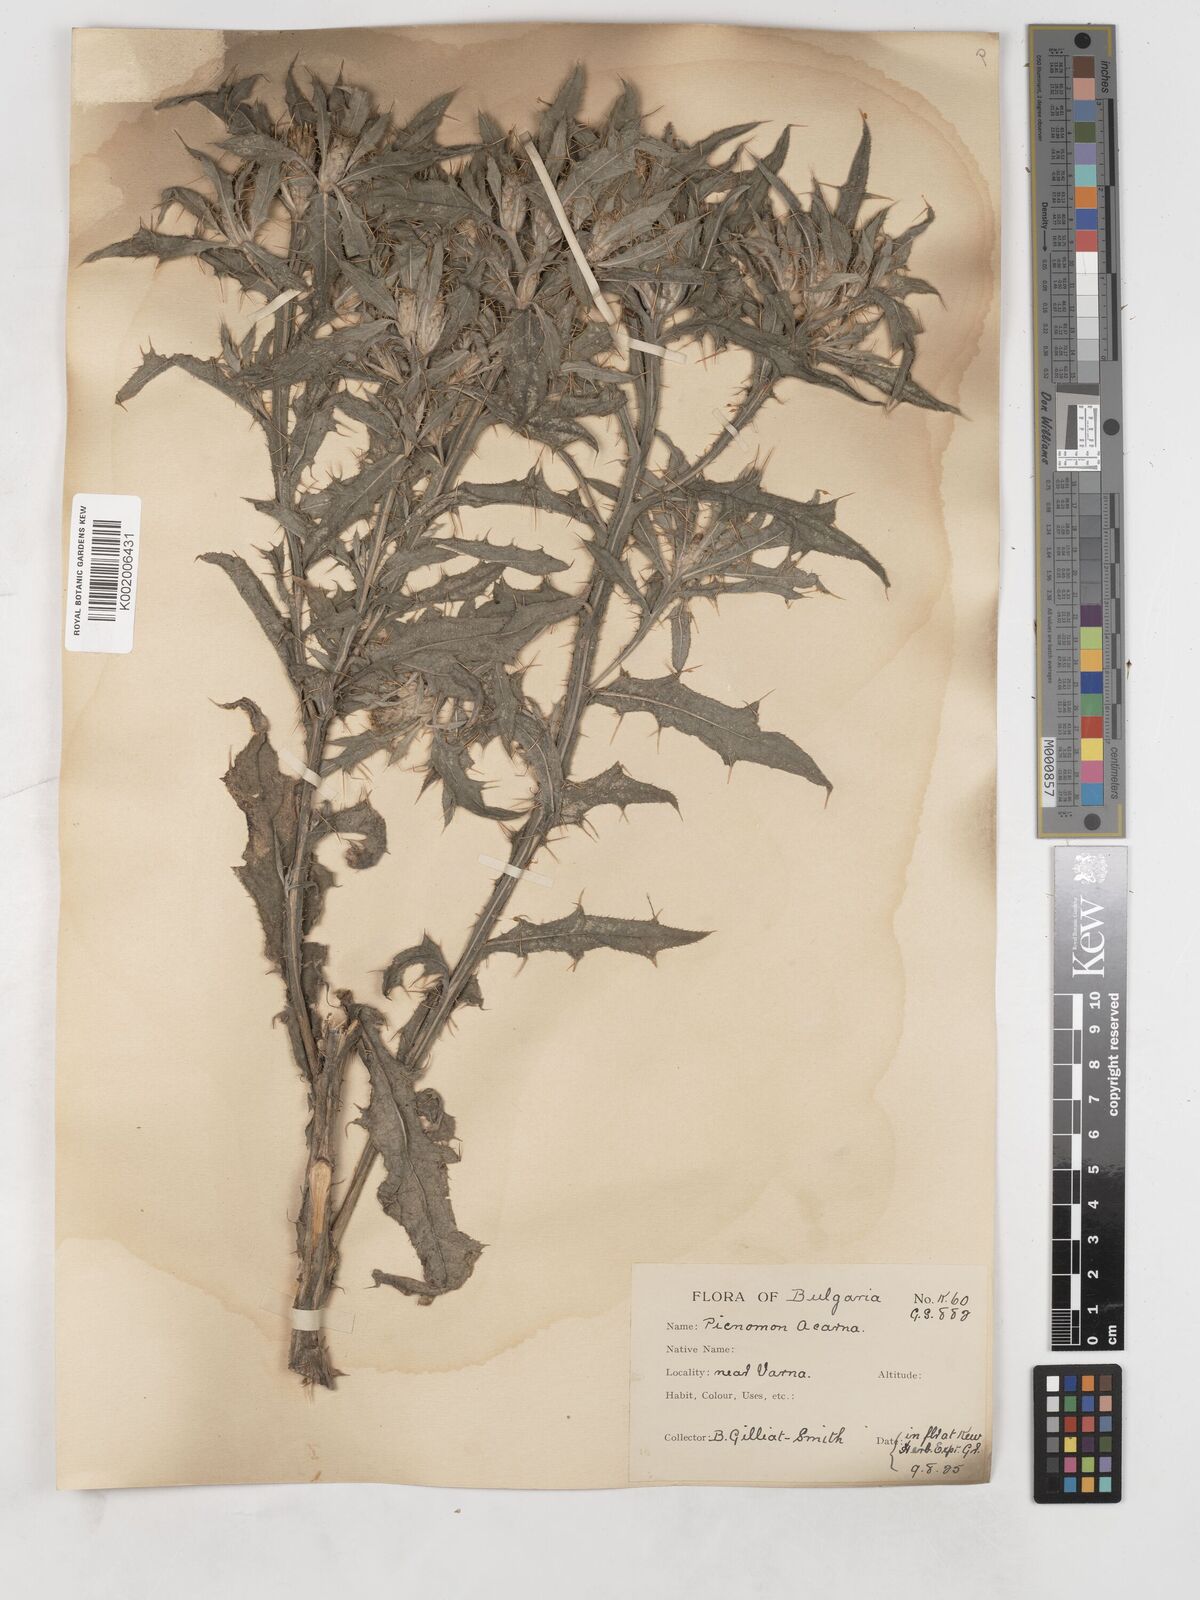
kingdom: Plantae
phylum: Tracheophyta
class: Magnoliopsida
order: Asterales
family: Asteraceae
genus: Picnomon
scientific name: Picnomon acarna
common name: Soldier thistle
